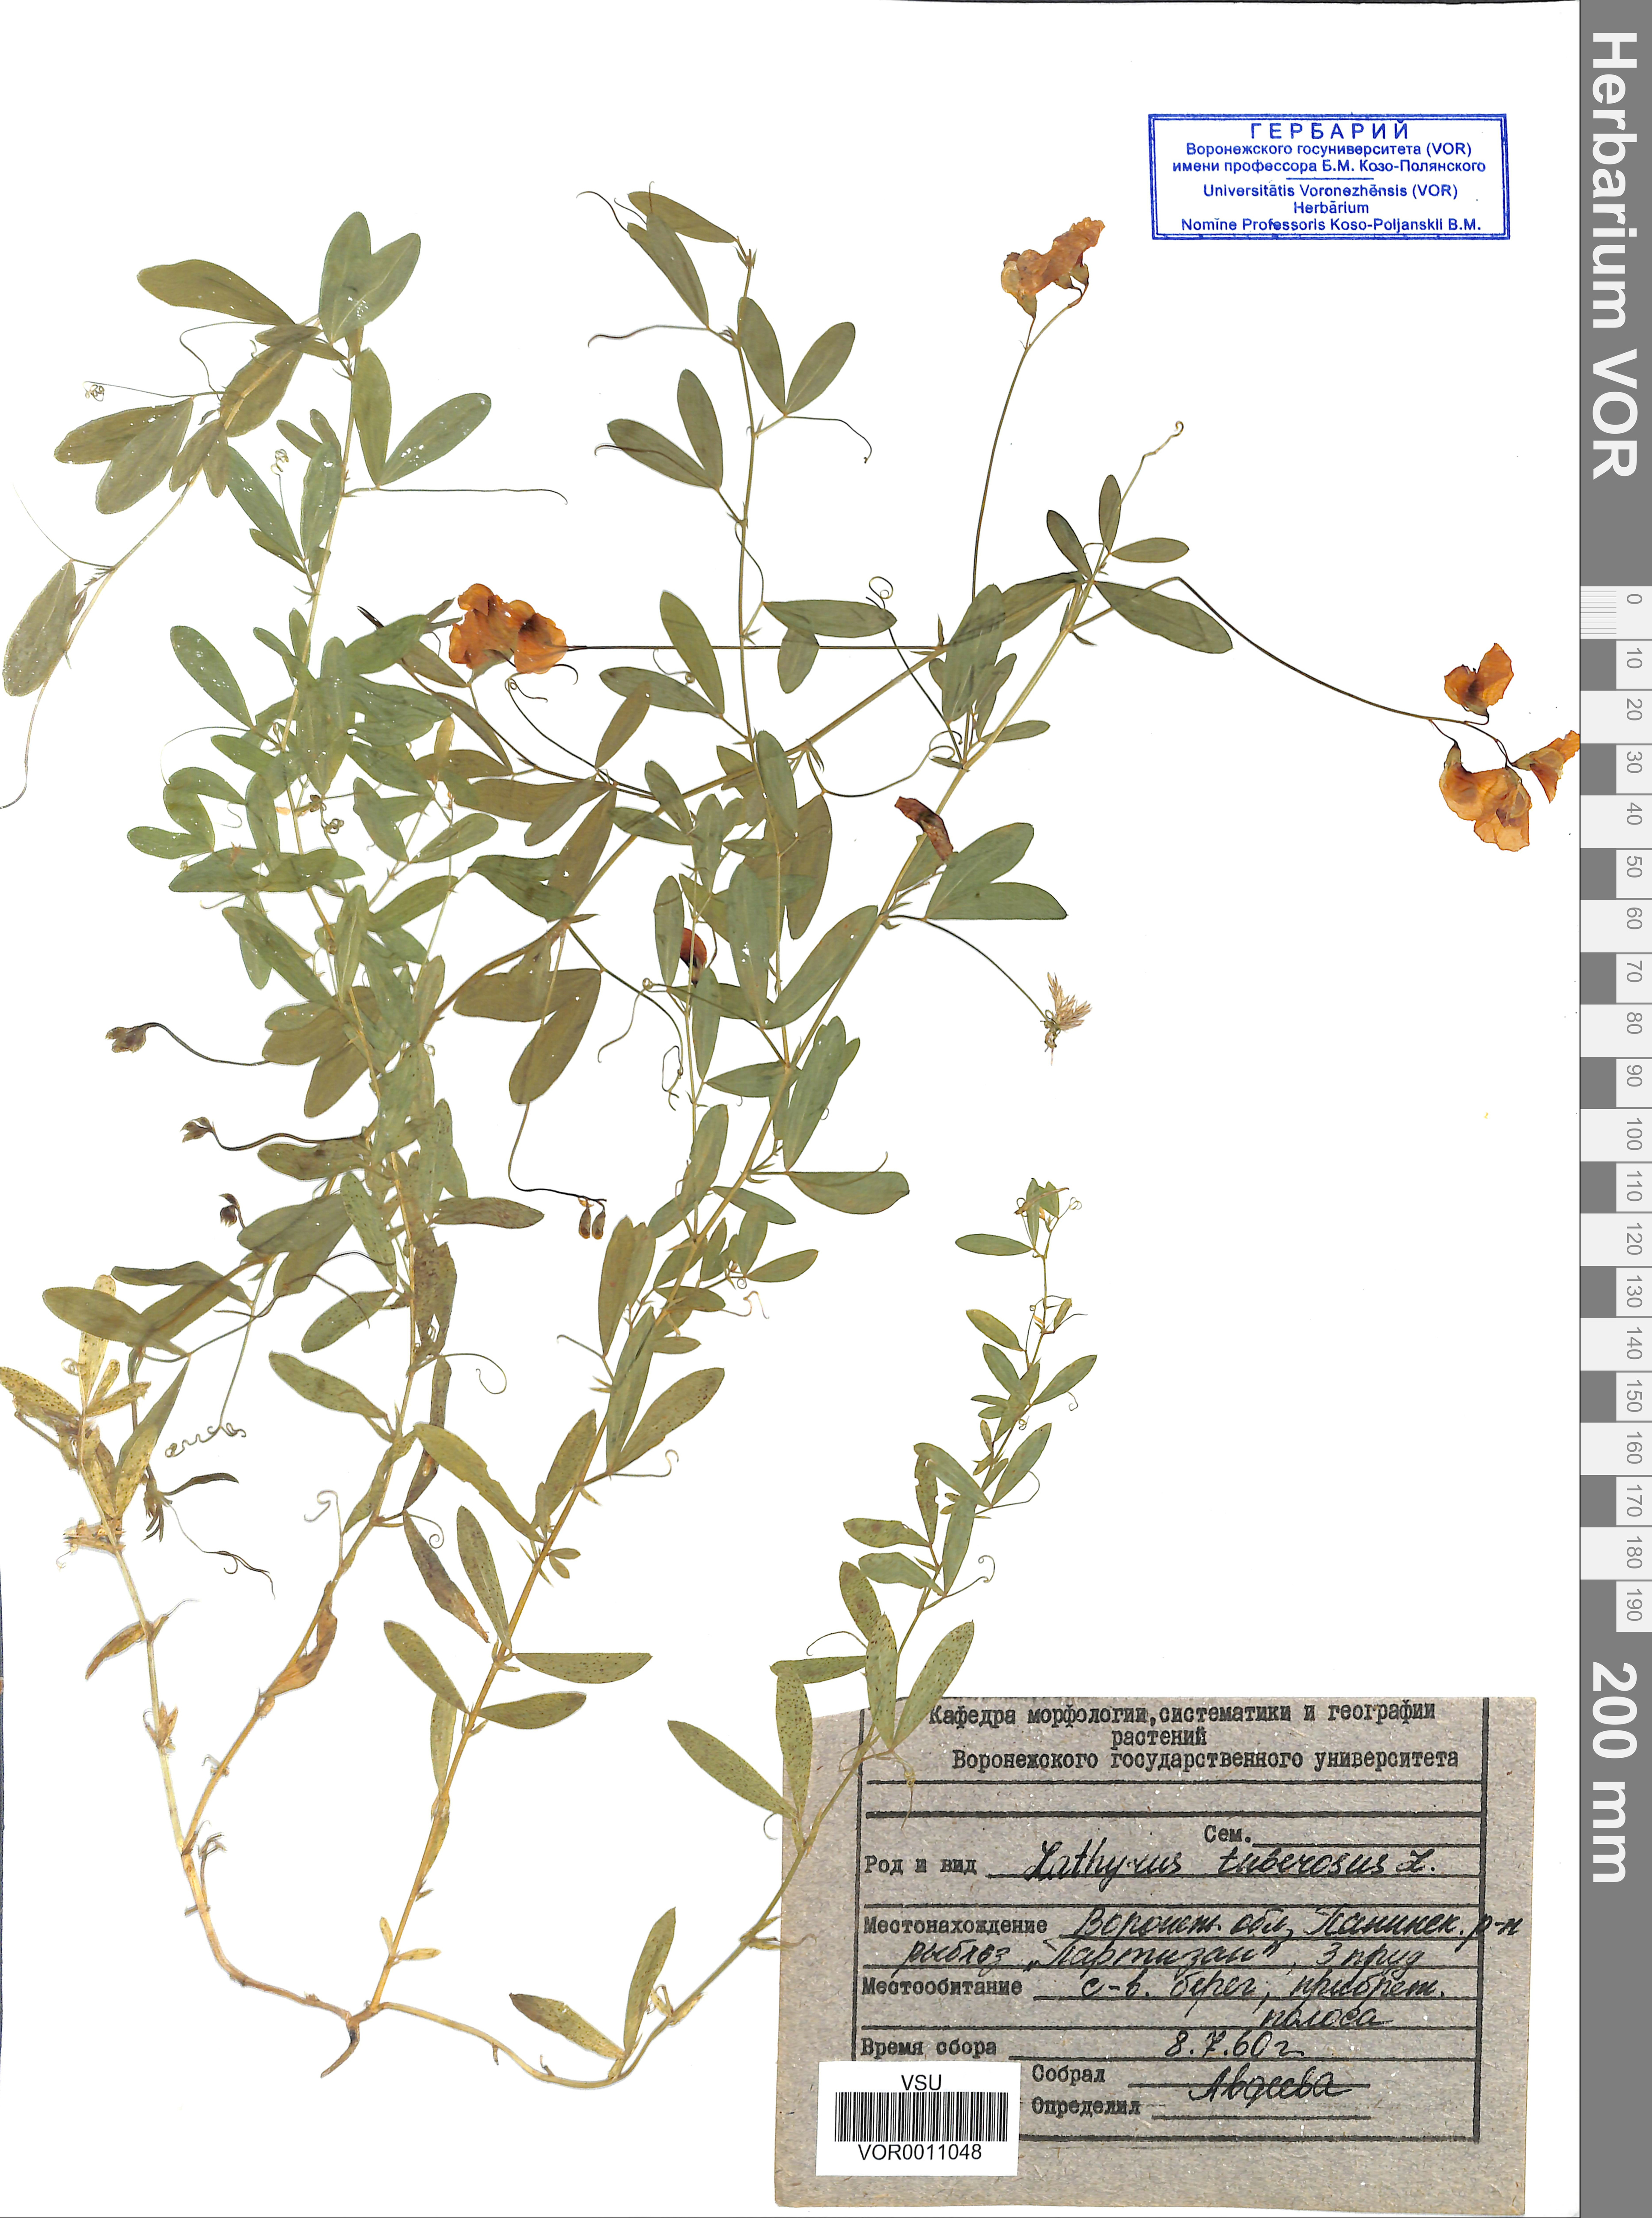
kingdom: Plantae
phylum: Tracheophyta
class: Magnoliopsida
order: Fabales
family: Fabaceae
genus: Lathyrus
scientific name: Lathyrus tuberosus
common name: Tuberous pea
